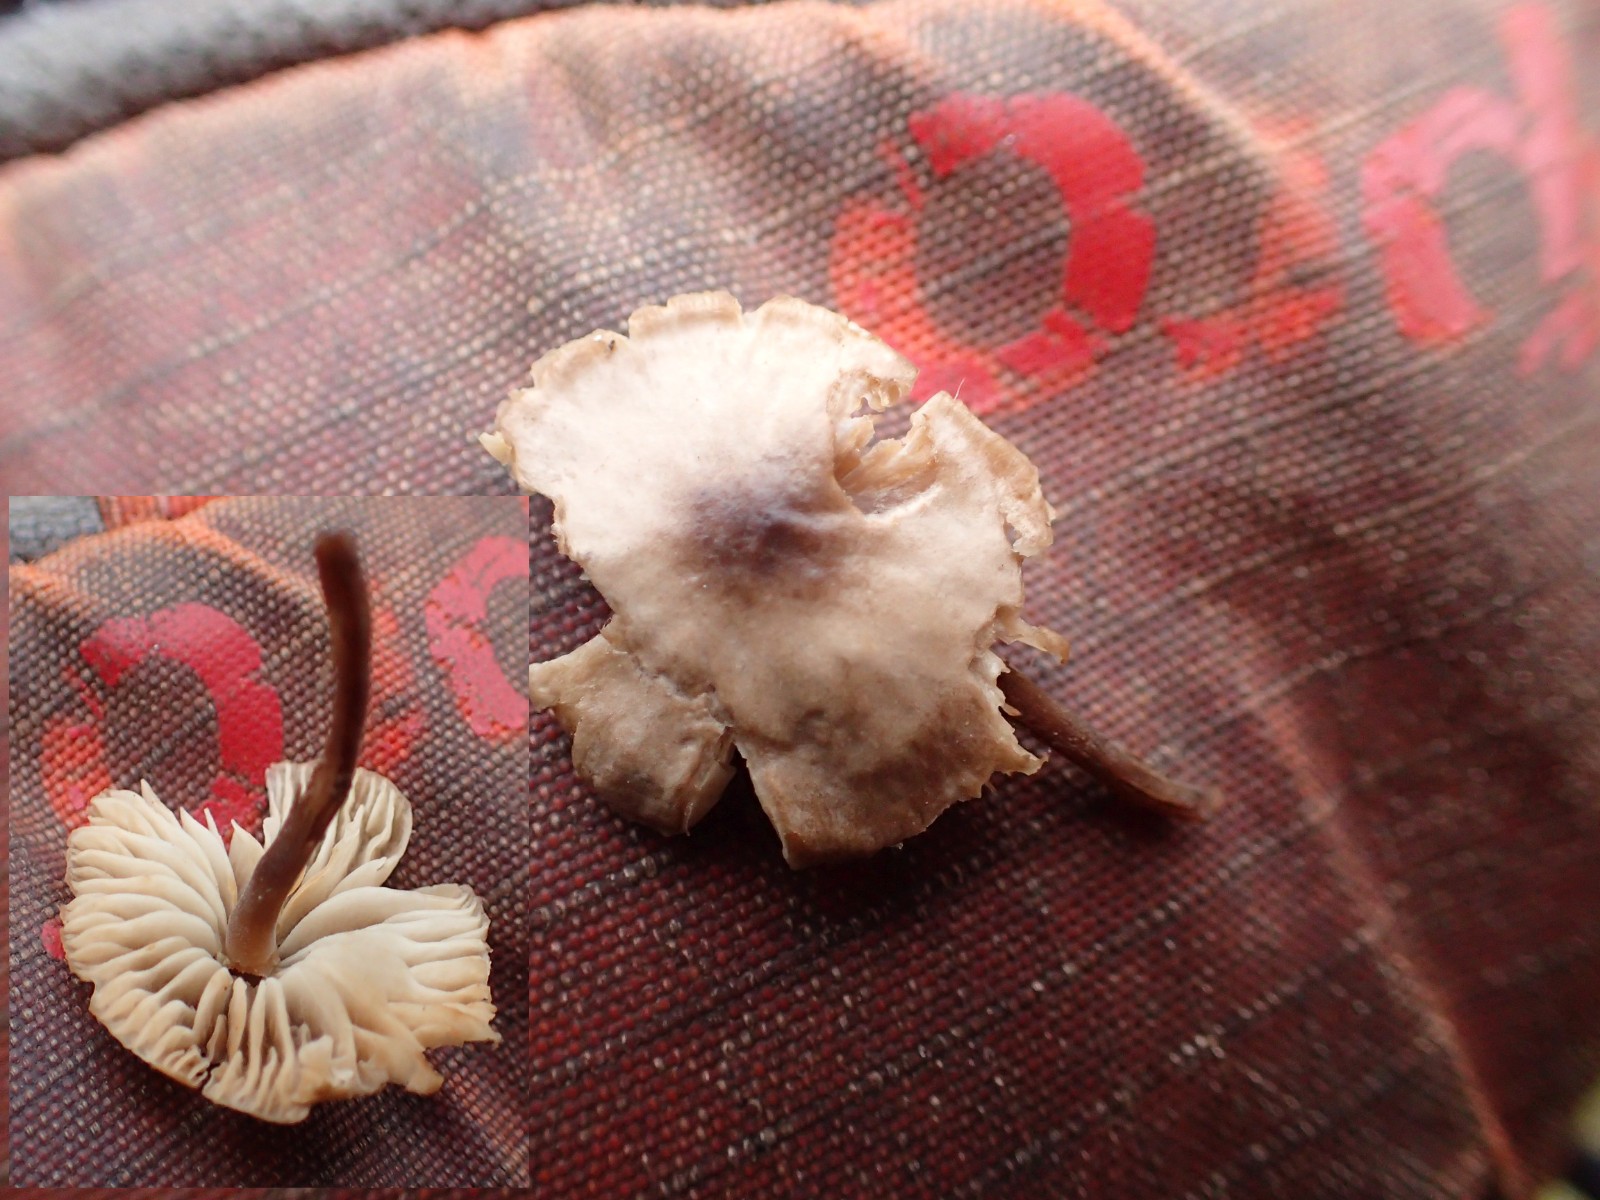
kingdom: Fungi
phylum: Basidiomycota
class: Agaricomycetes
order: Agaricales
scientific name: Agaricales
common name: champignonordenen
